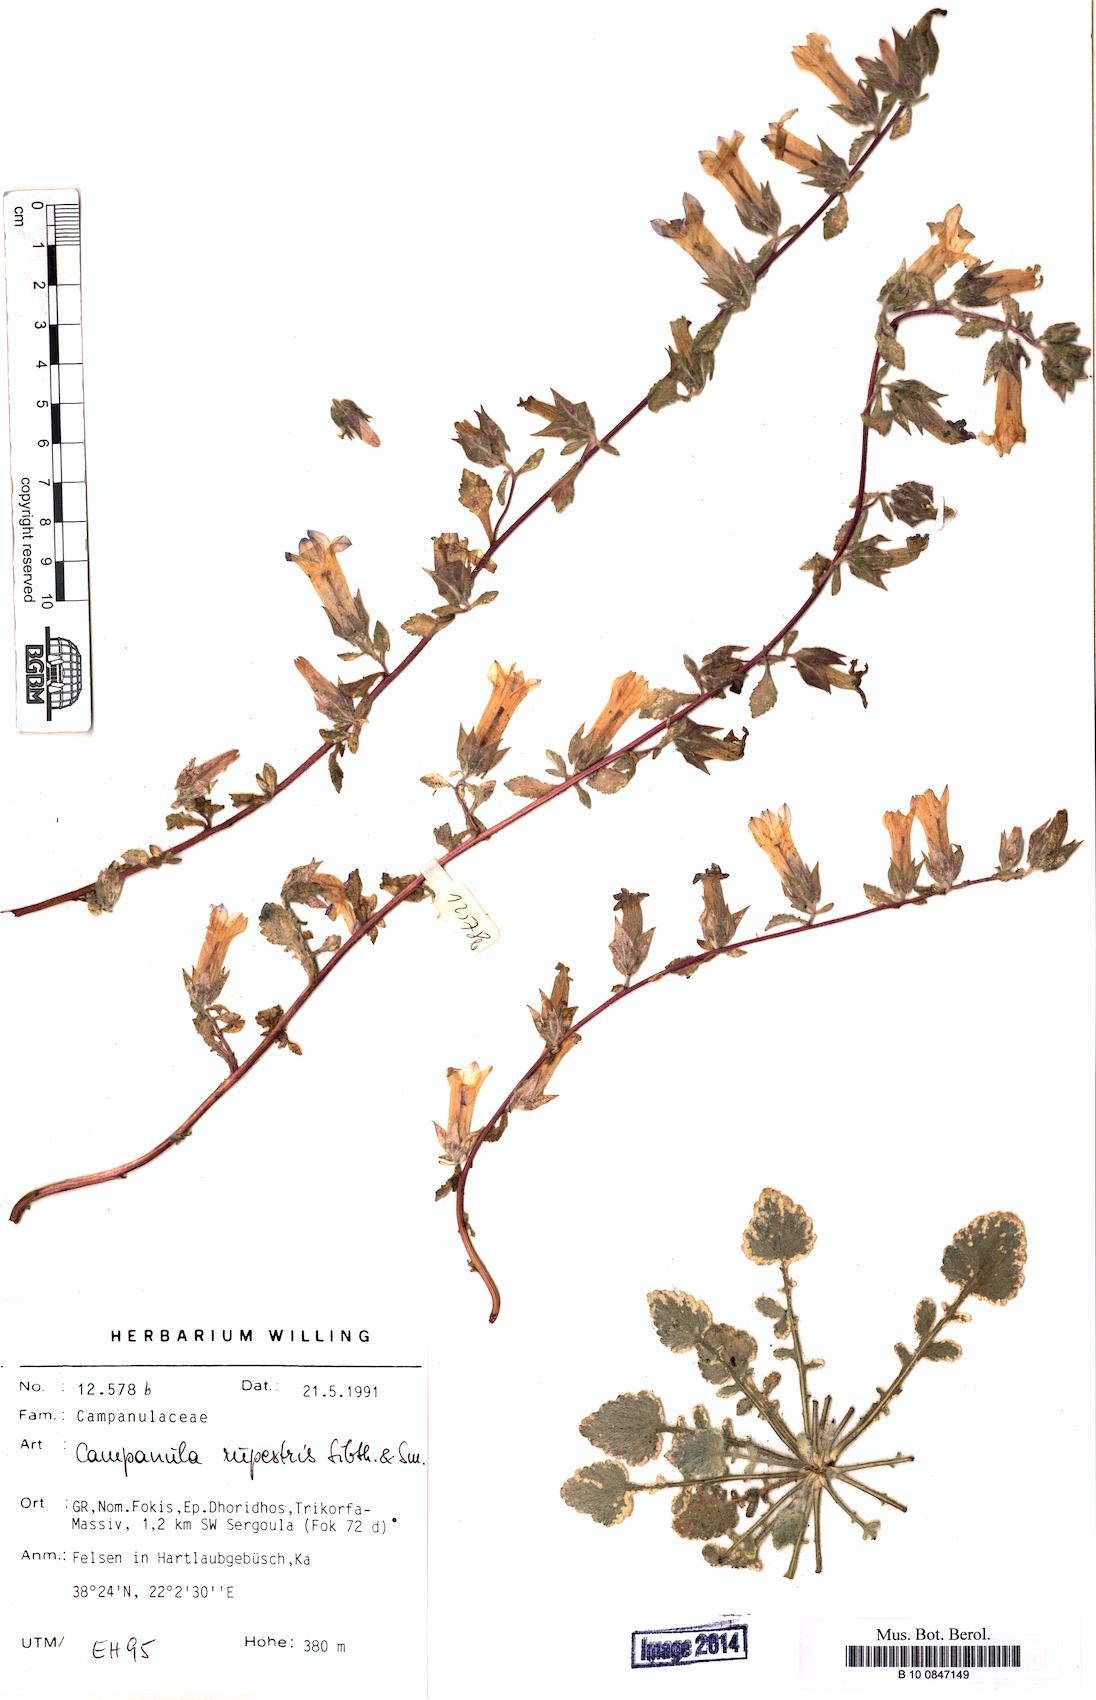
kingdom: Plantae
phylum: Tracheophyta
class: Magnoliopsida
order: Asterales
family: Campanulaceae
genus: Campanula
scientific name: Campanula rupestris
